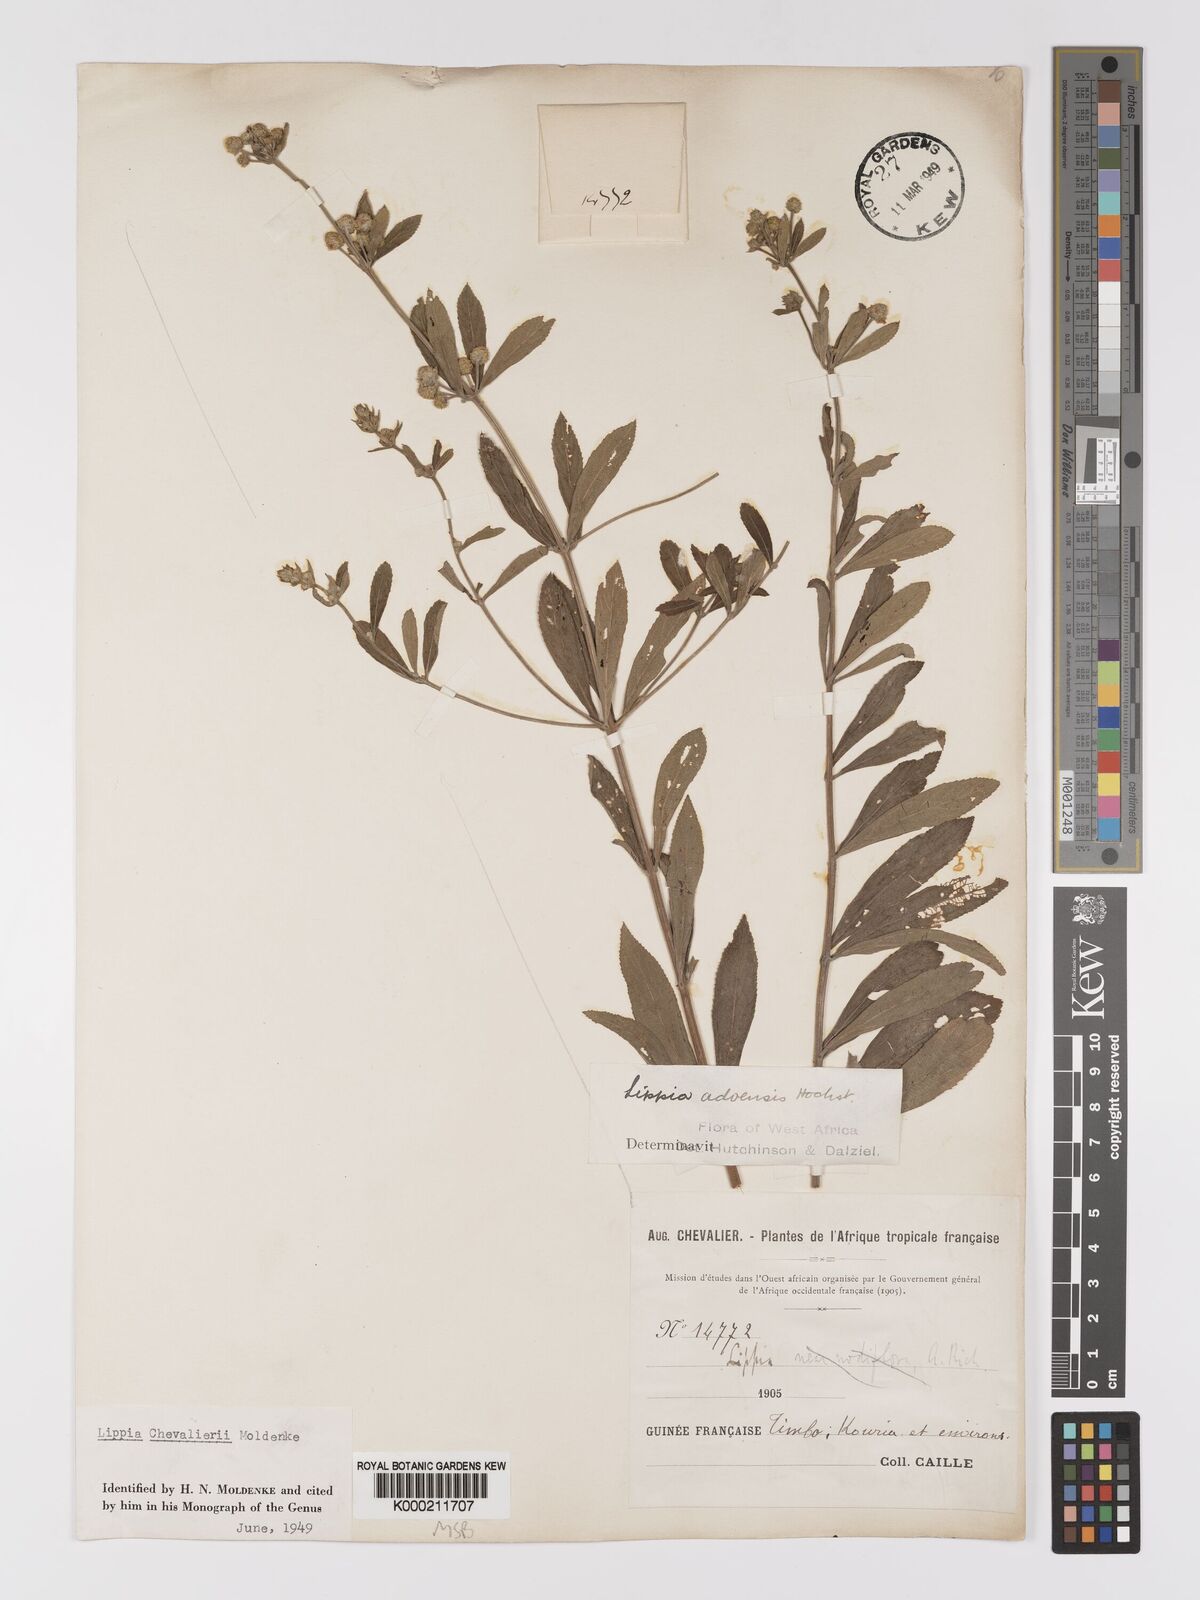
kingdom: Plantae
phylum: Tracheophyta
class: Magnoliopsida
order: Lamiales
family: Verbenaceae
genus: Lippia
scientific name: Lippia chevalieri
